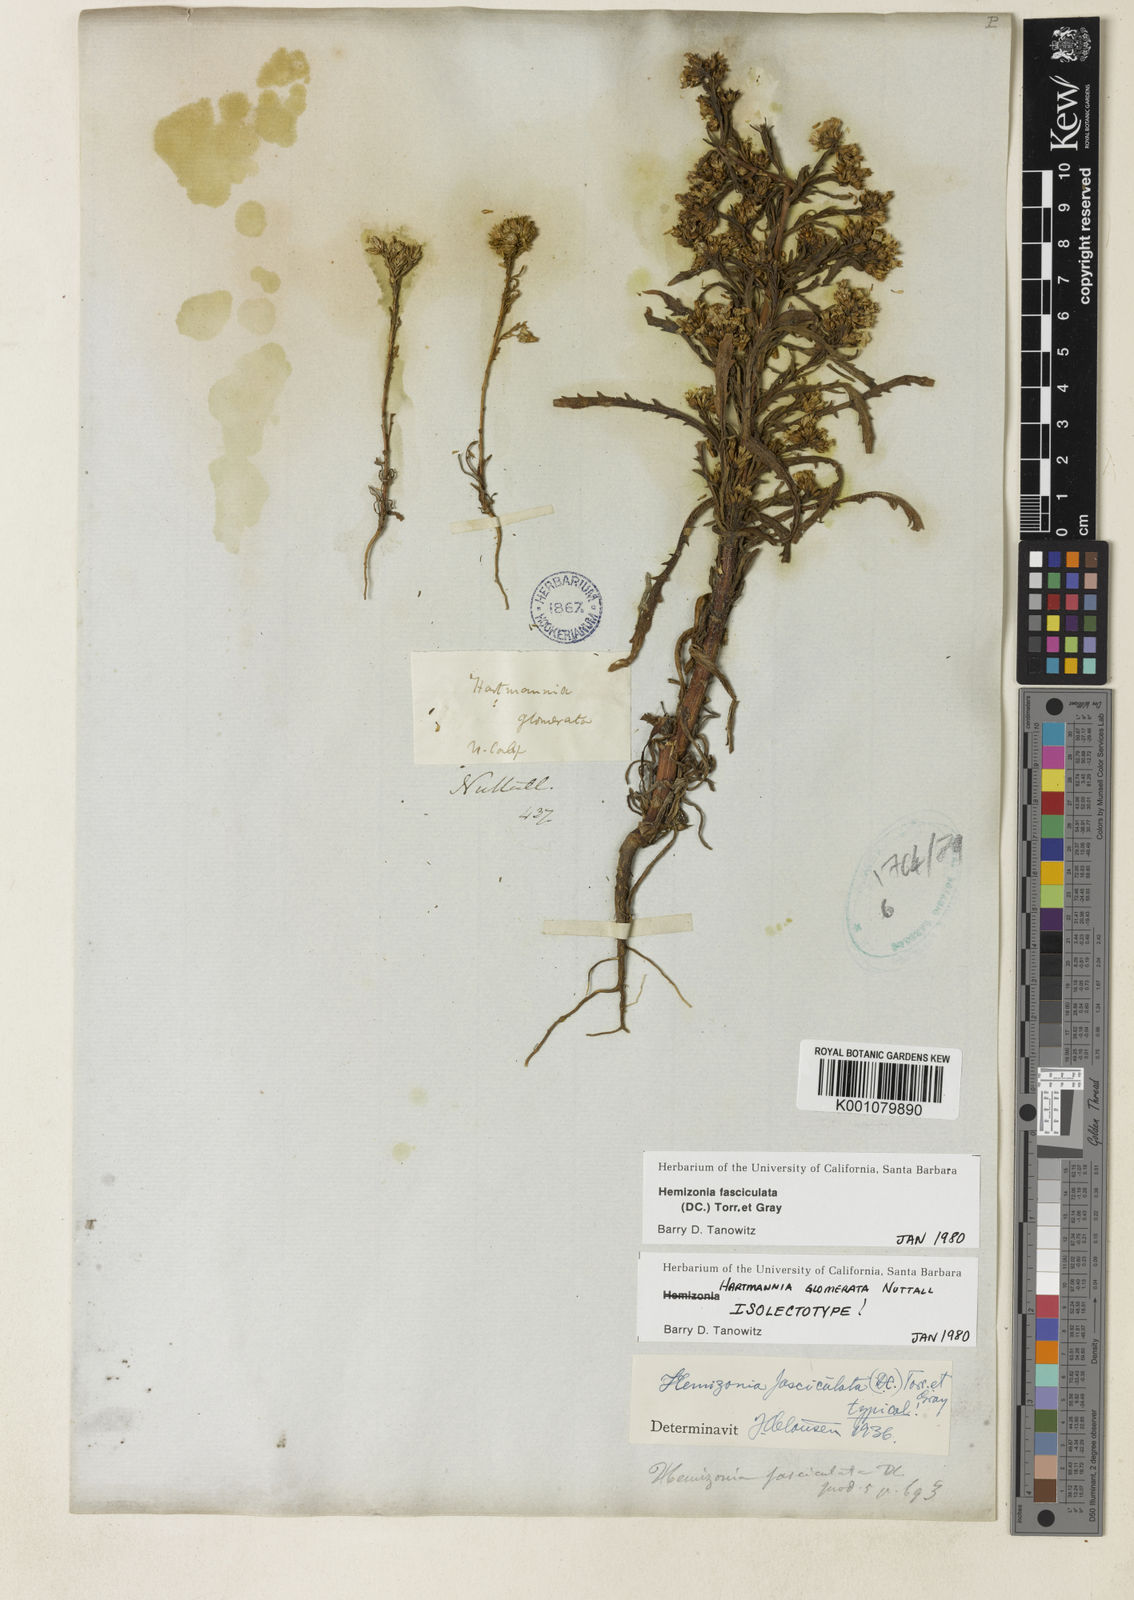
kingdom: Plantae
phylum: Tracheophyta
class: Magnoliopsida
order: Asterales
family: Asteraceae
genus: Deinandra
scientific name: Deinandra fasciculata
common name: Clustered tarweed
